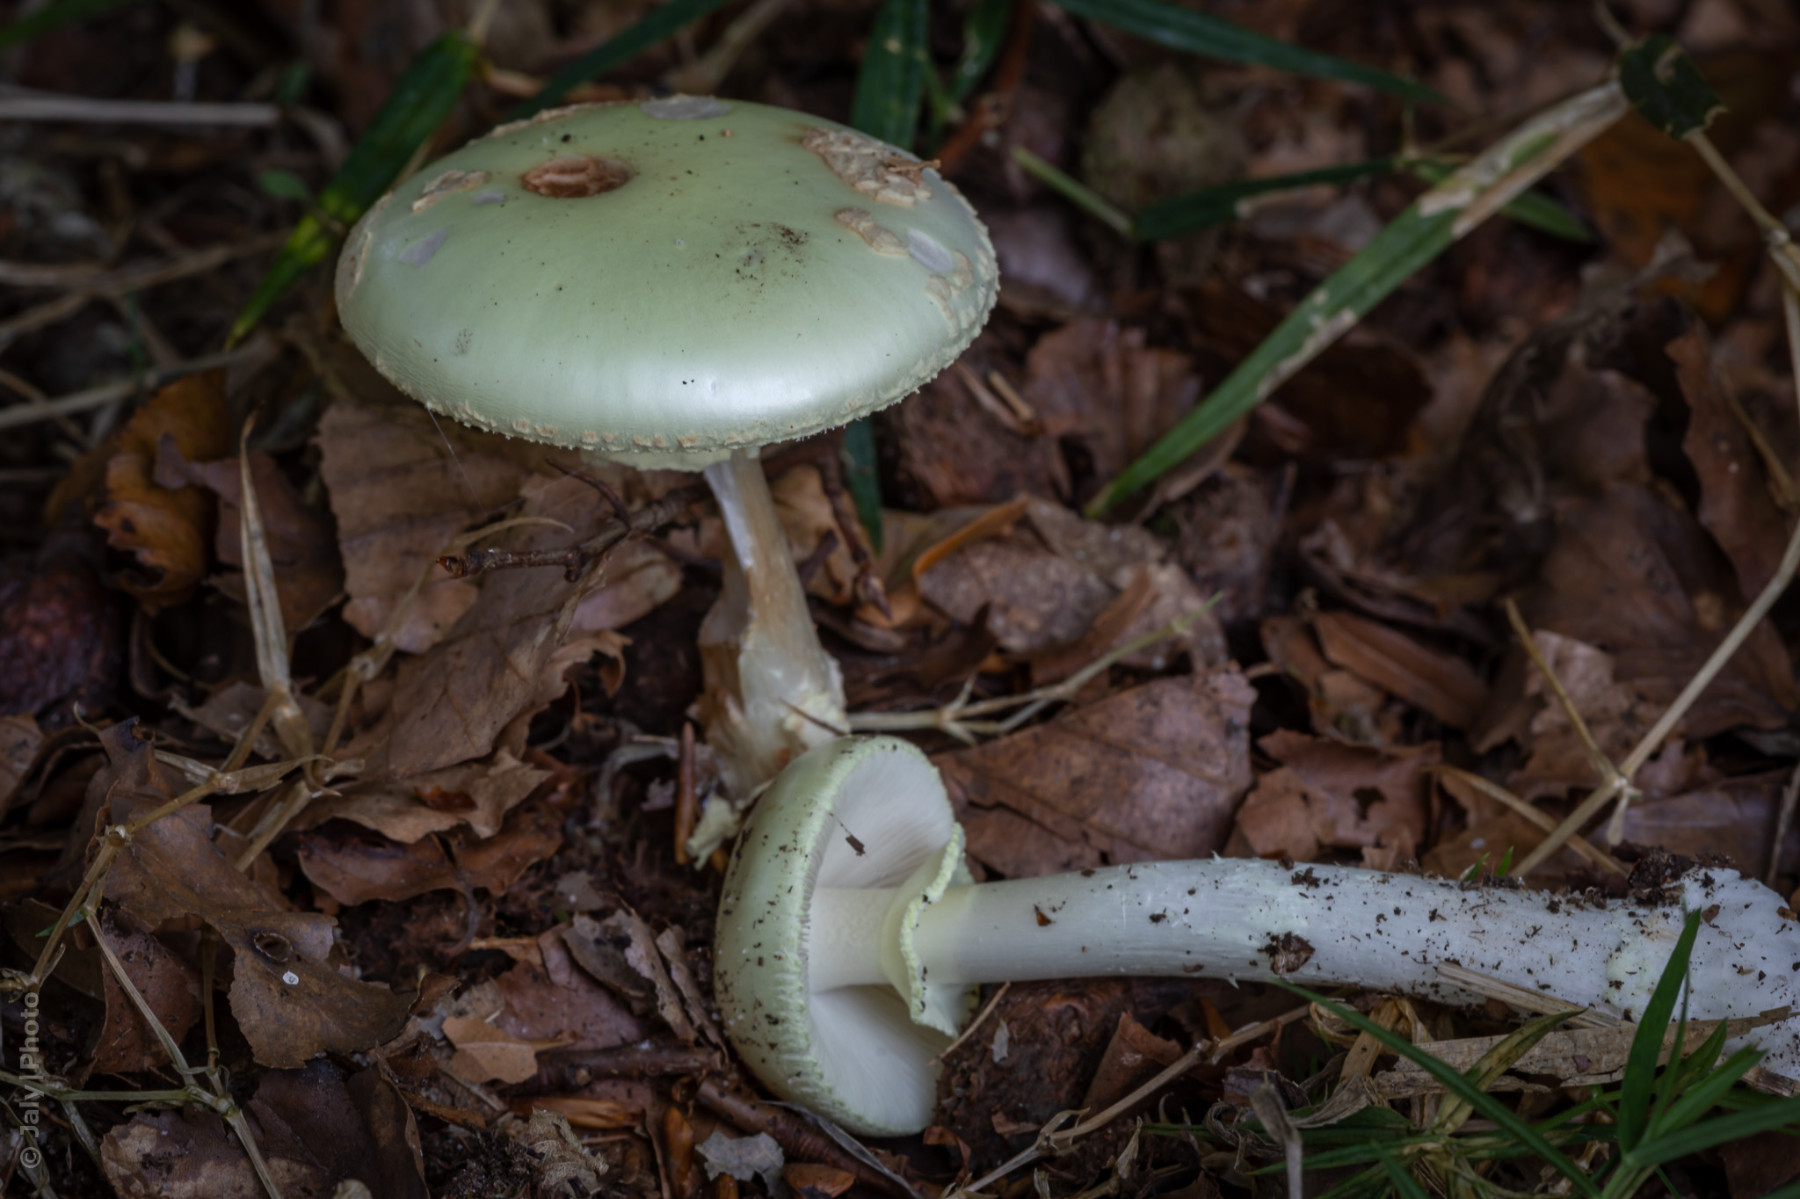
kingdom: Fungi
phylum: Basidiomycota
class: Agaricomycetes
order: Agaricales
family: Amanitaceae
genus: Amanita
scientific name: Amanita citrina
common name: kugleknoldet fluesvamp
